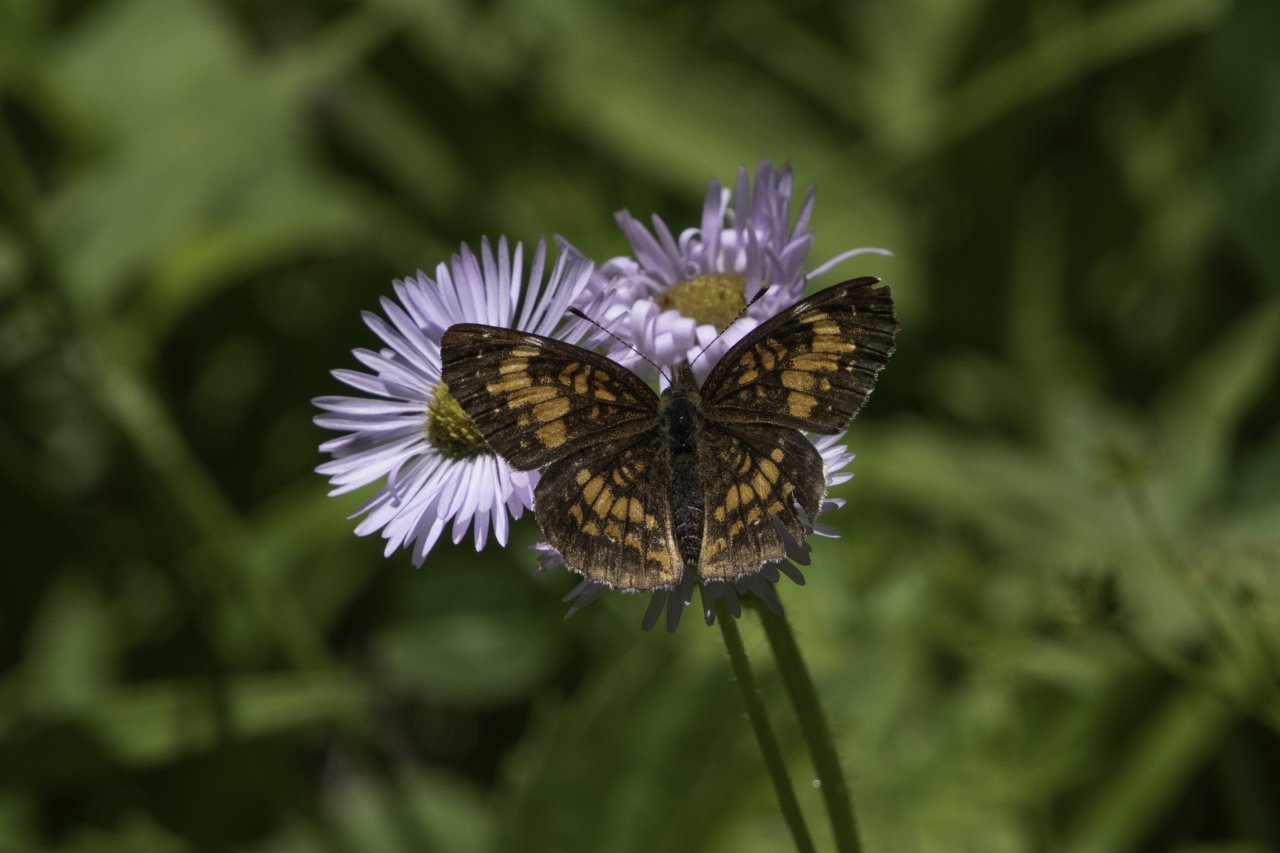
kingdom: Animalia
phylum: Arthropoda
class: Insecta
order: Lepidoptera
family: Nymphalidae
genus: Chlosyne
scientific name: Chlosyne harrisii
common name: Harris's Checkerspot
